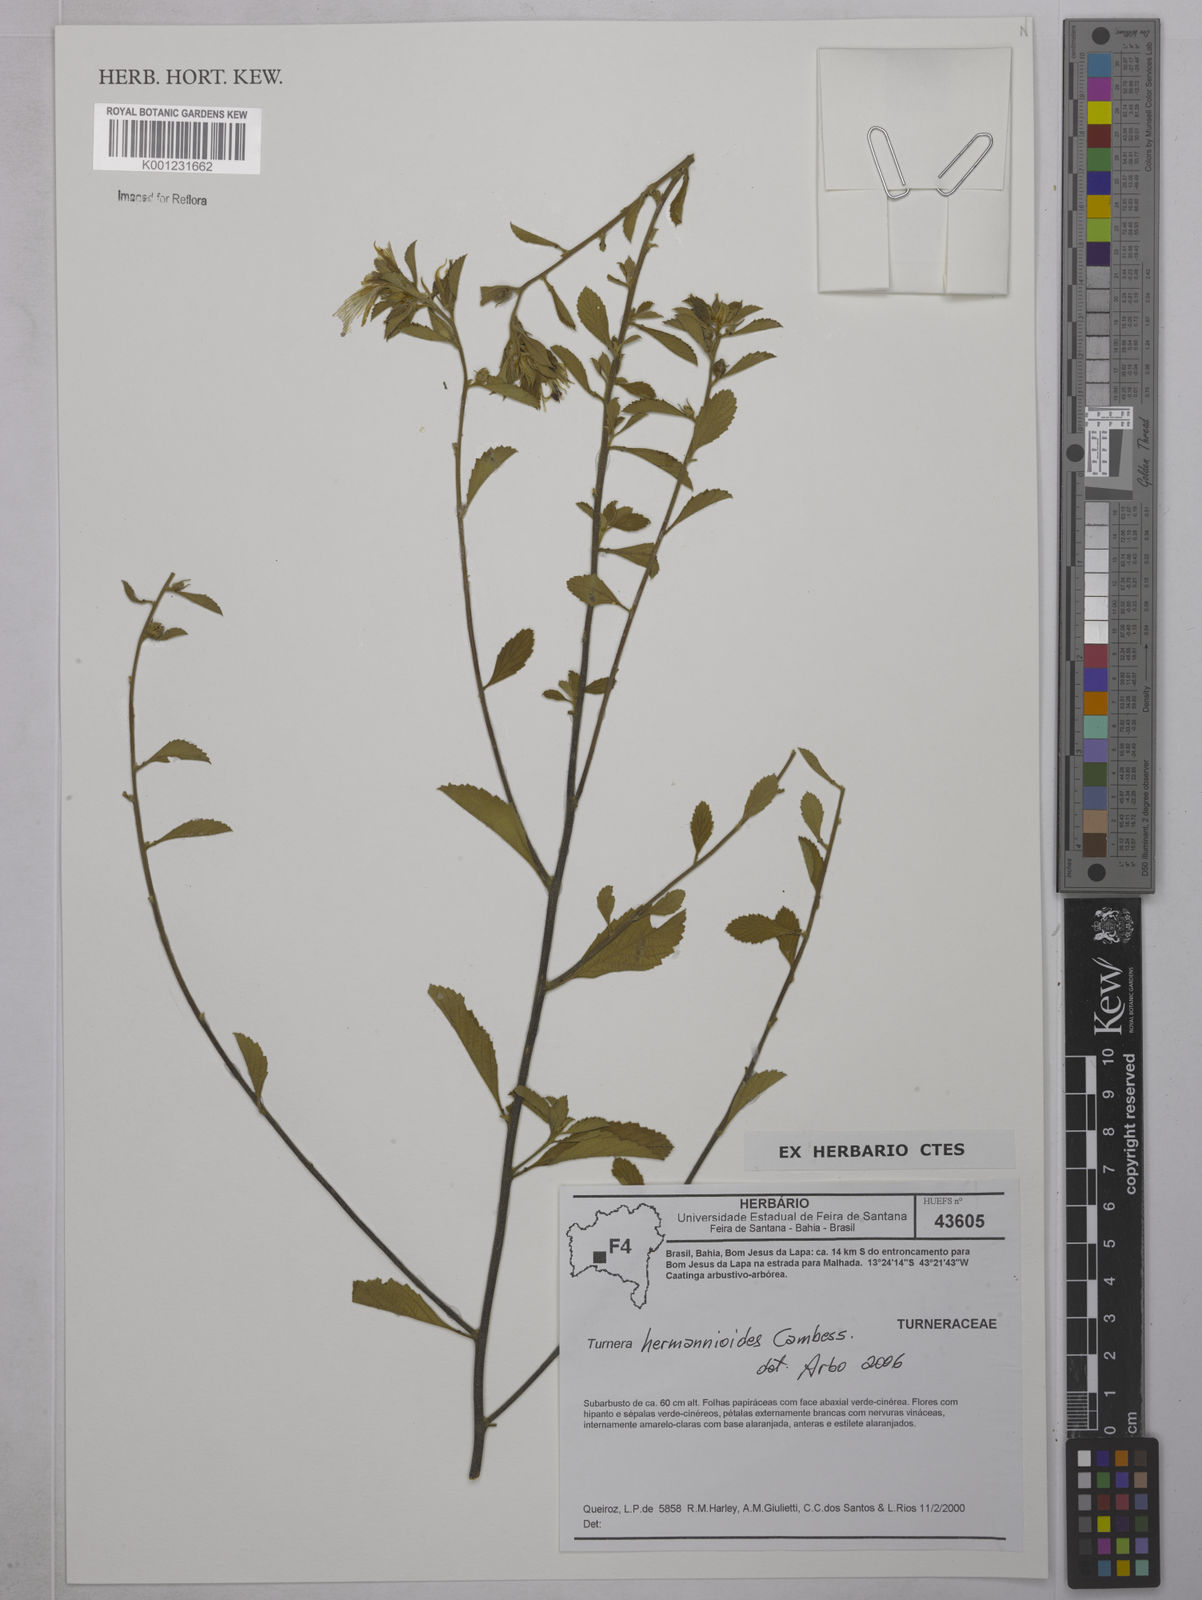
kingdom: Plantae
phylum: Tracheophyta
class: Magnoliopsida
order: Malpighiales
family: Turneraceae
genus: Turnera
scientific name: Turnera hermannioides
